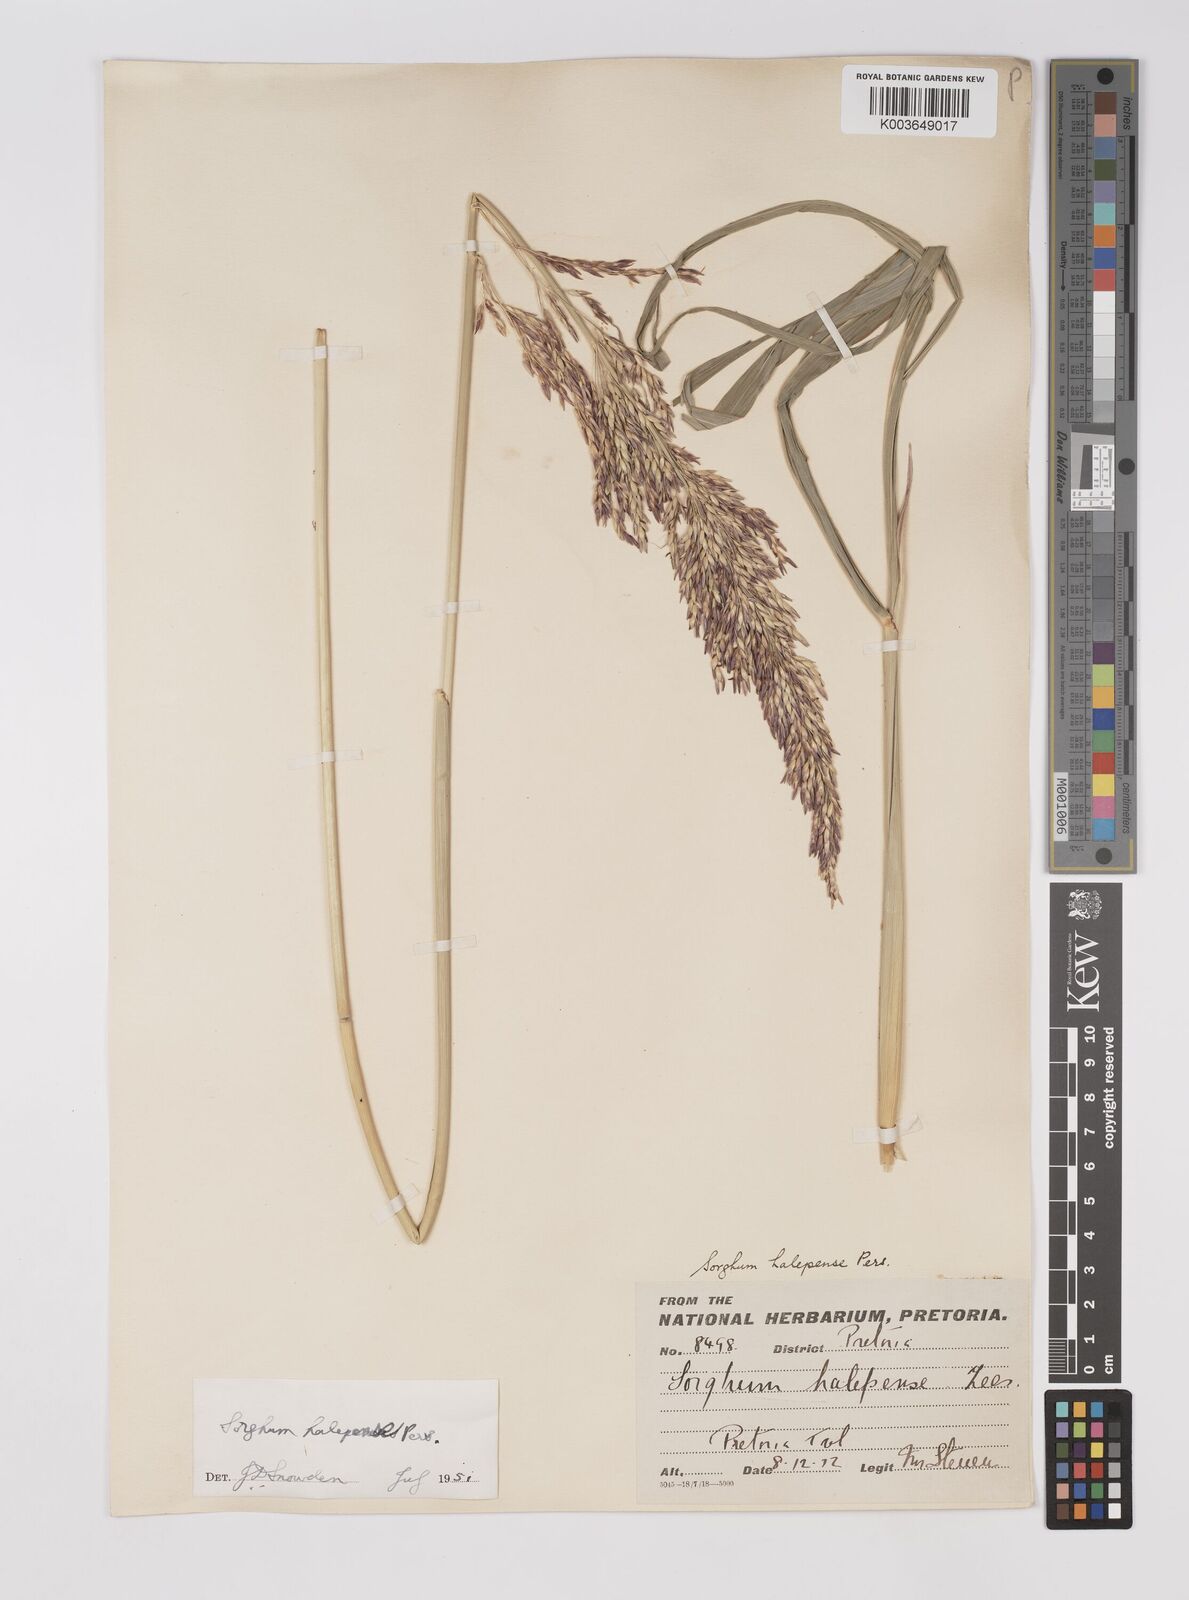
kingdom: Plantae
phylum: Tracheophyta
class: Liliopsida
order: Poales
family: Poaceae
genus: Sorghum
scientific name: Sorghum halepense
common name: Johnson-grass
